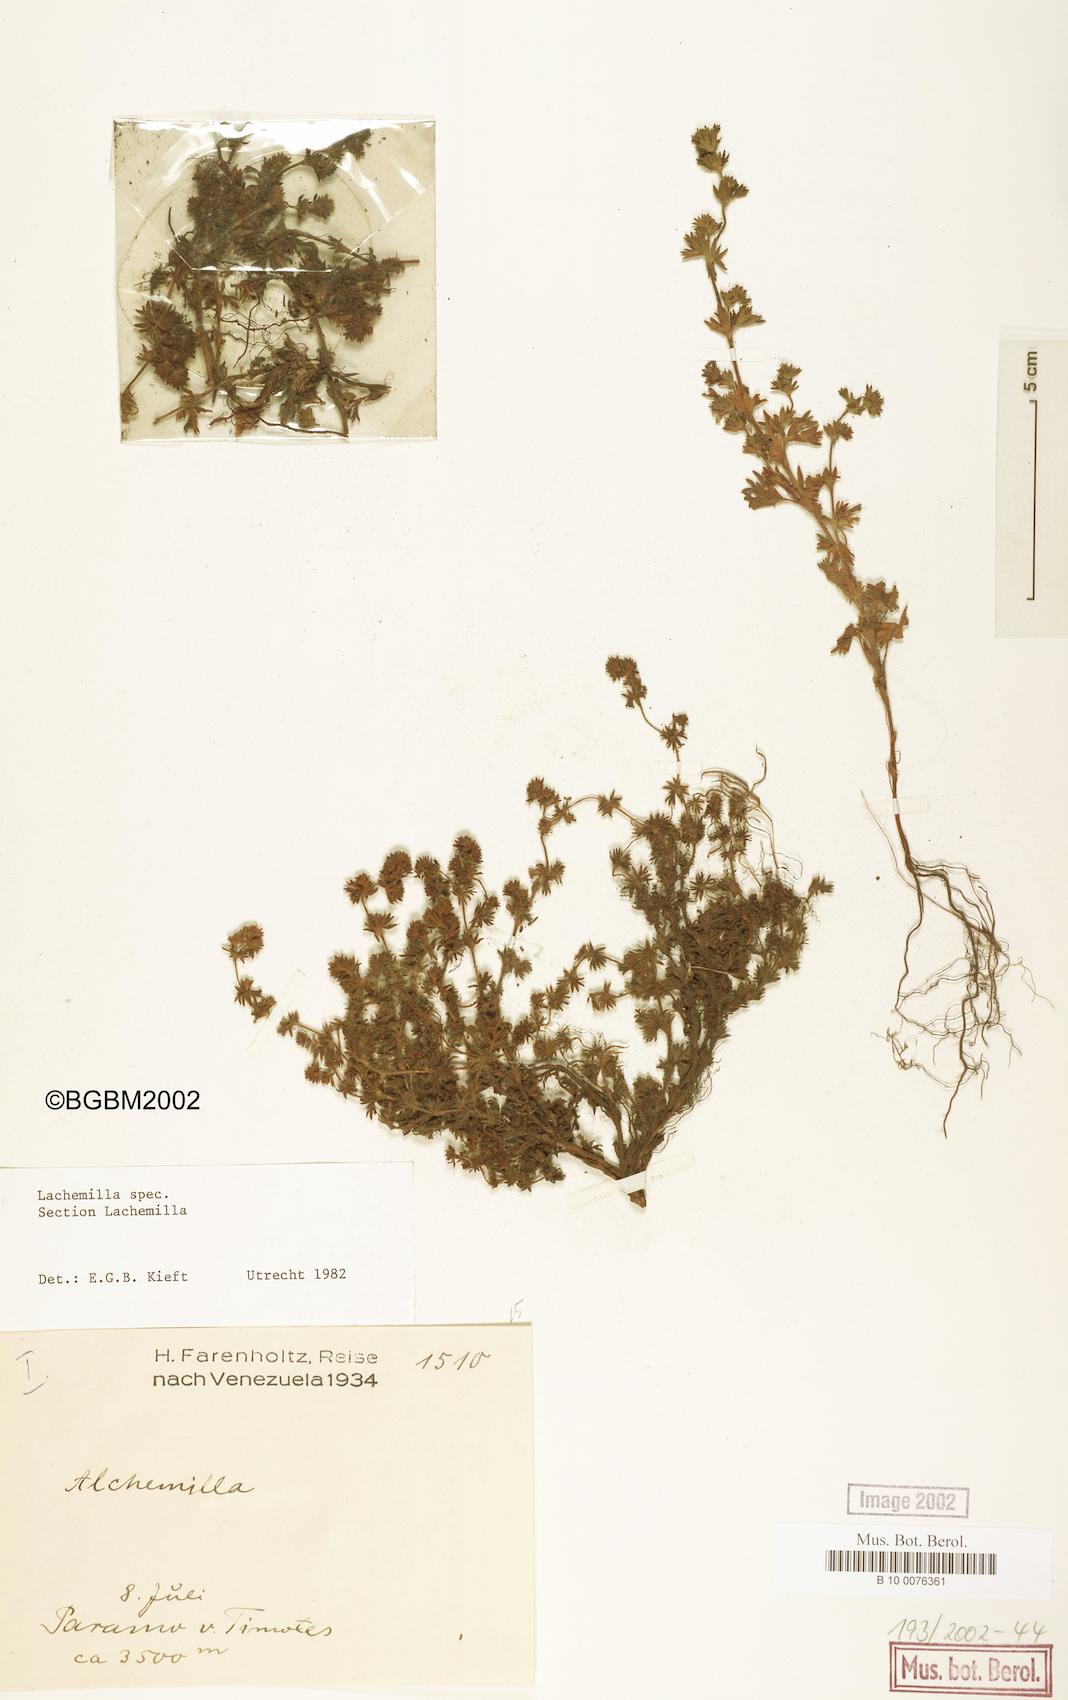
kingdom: Plantae
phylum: Tracheophyta
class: Magnoliopsida
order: Rosales
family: Rosaceae
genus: Lachemilla
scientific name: Lachemilla
